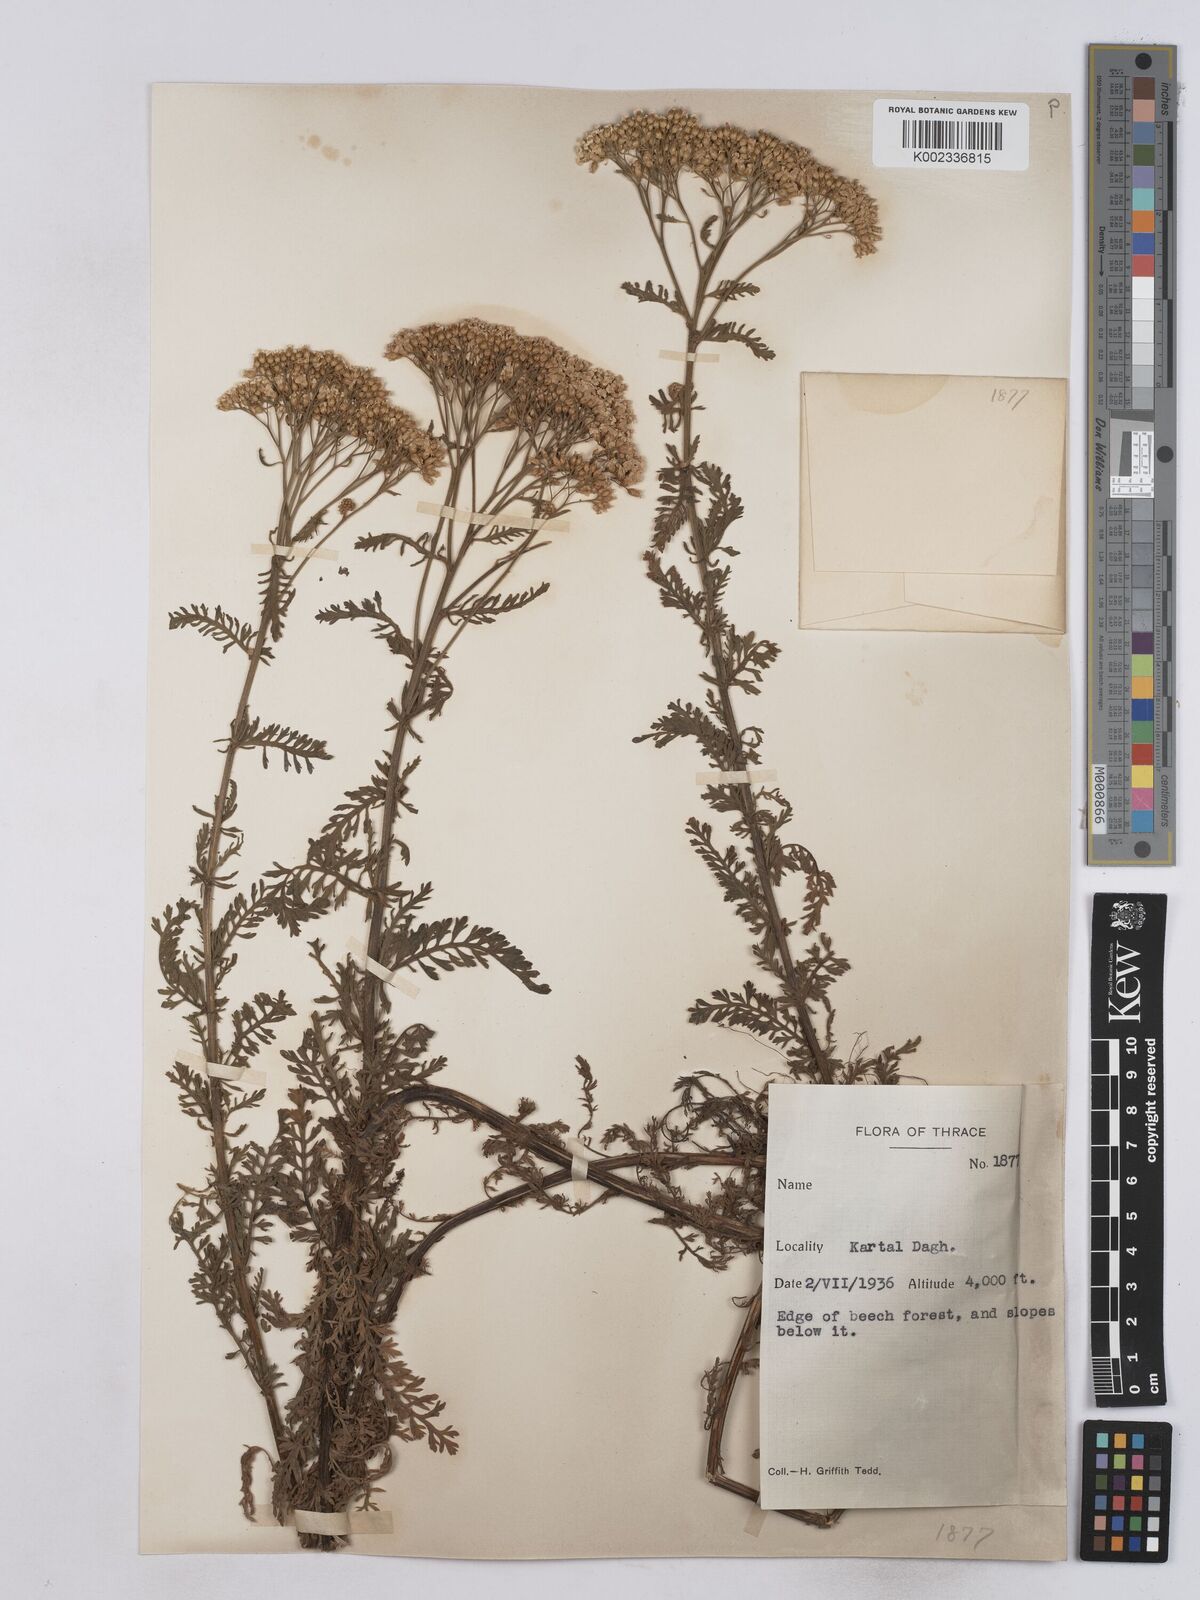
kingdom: Plantae
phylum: Tracheophyta
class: Magnoliopsida
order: Asterales
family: Asteraceae
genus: Achillea
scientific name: Achillea crithmifolia
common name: Yarrow
